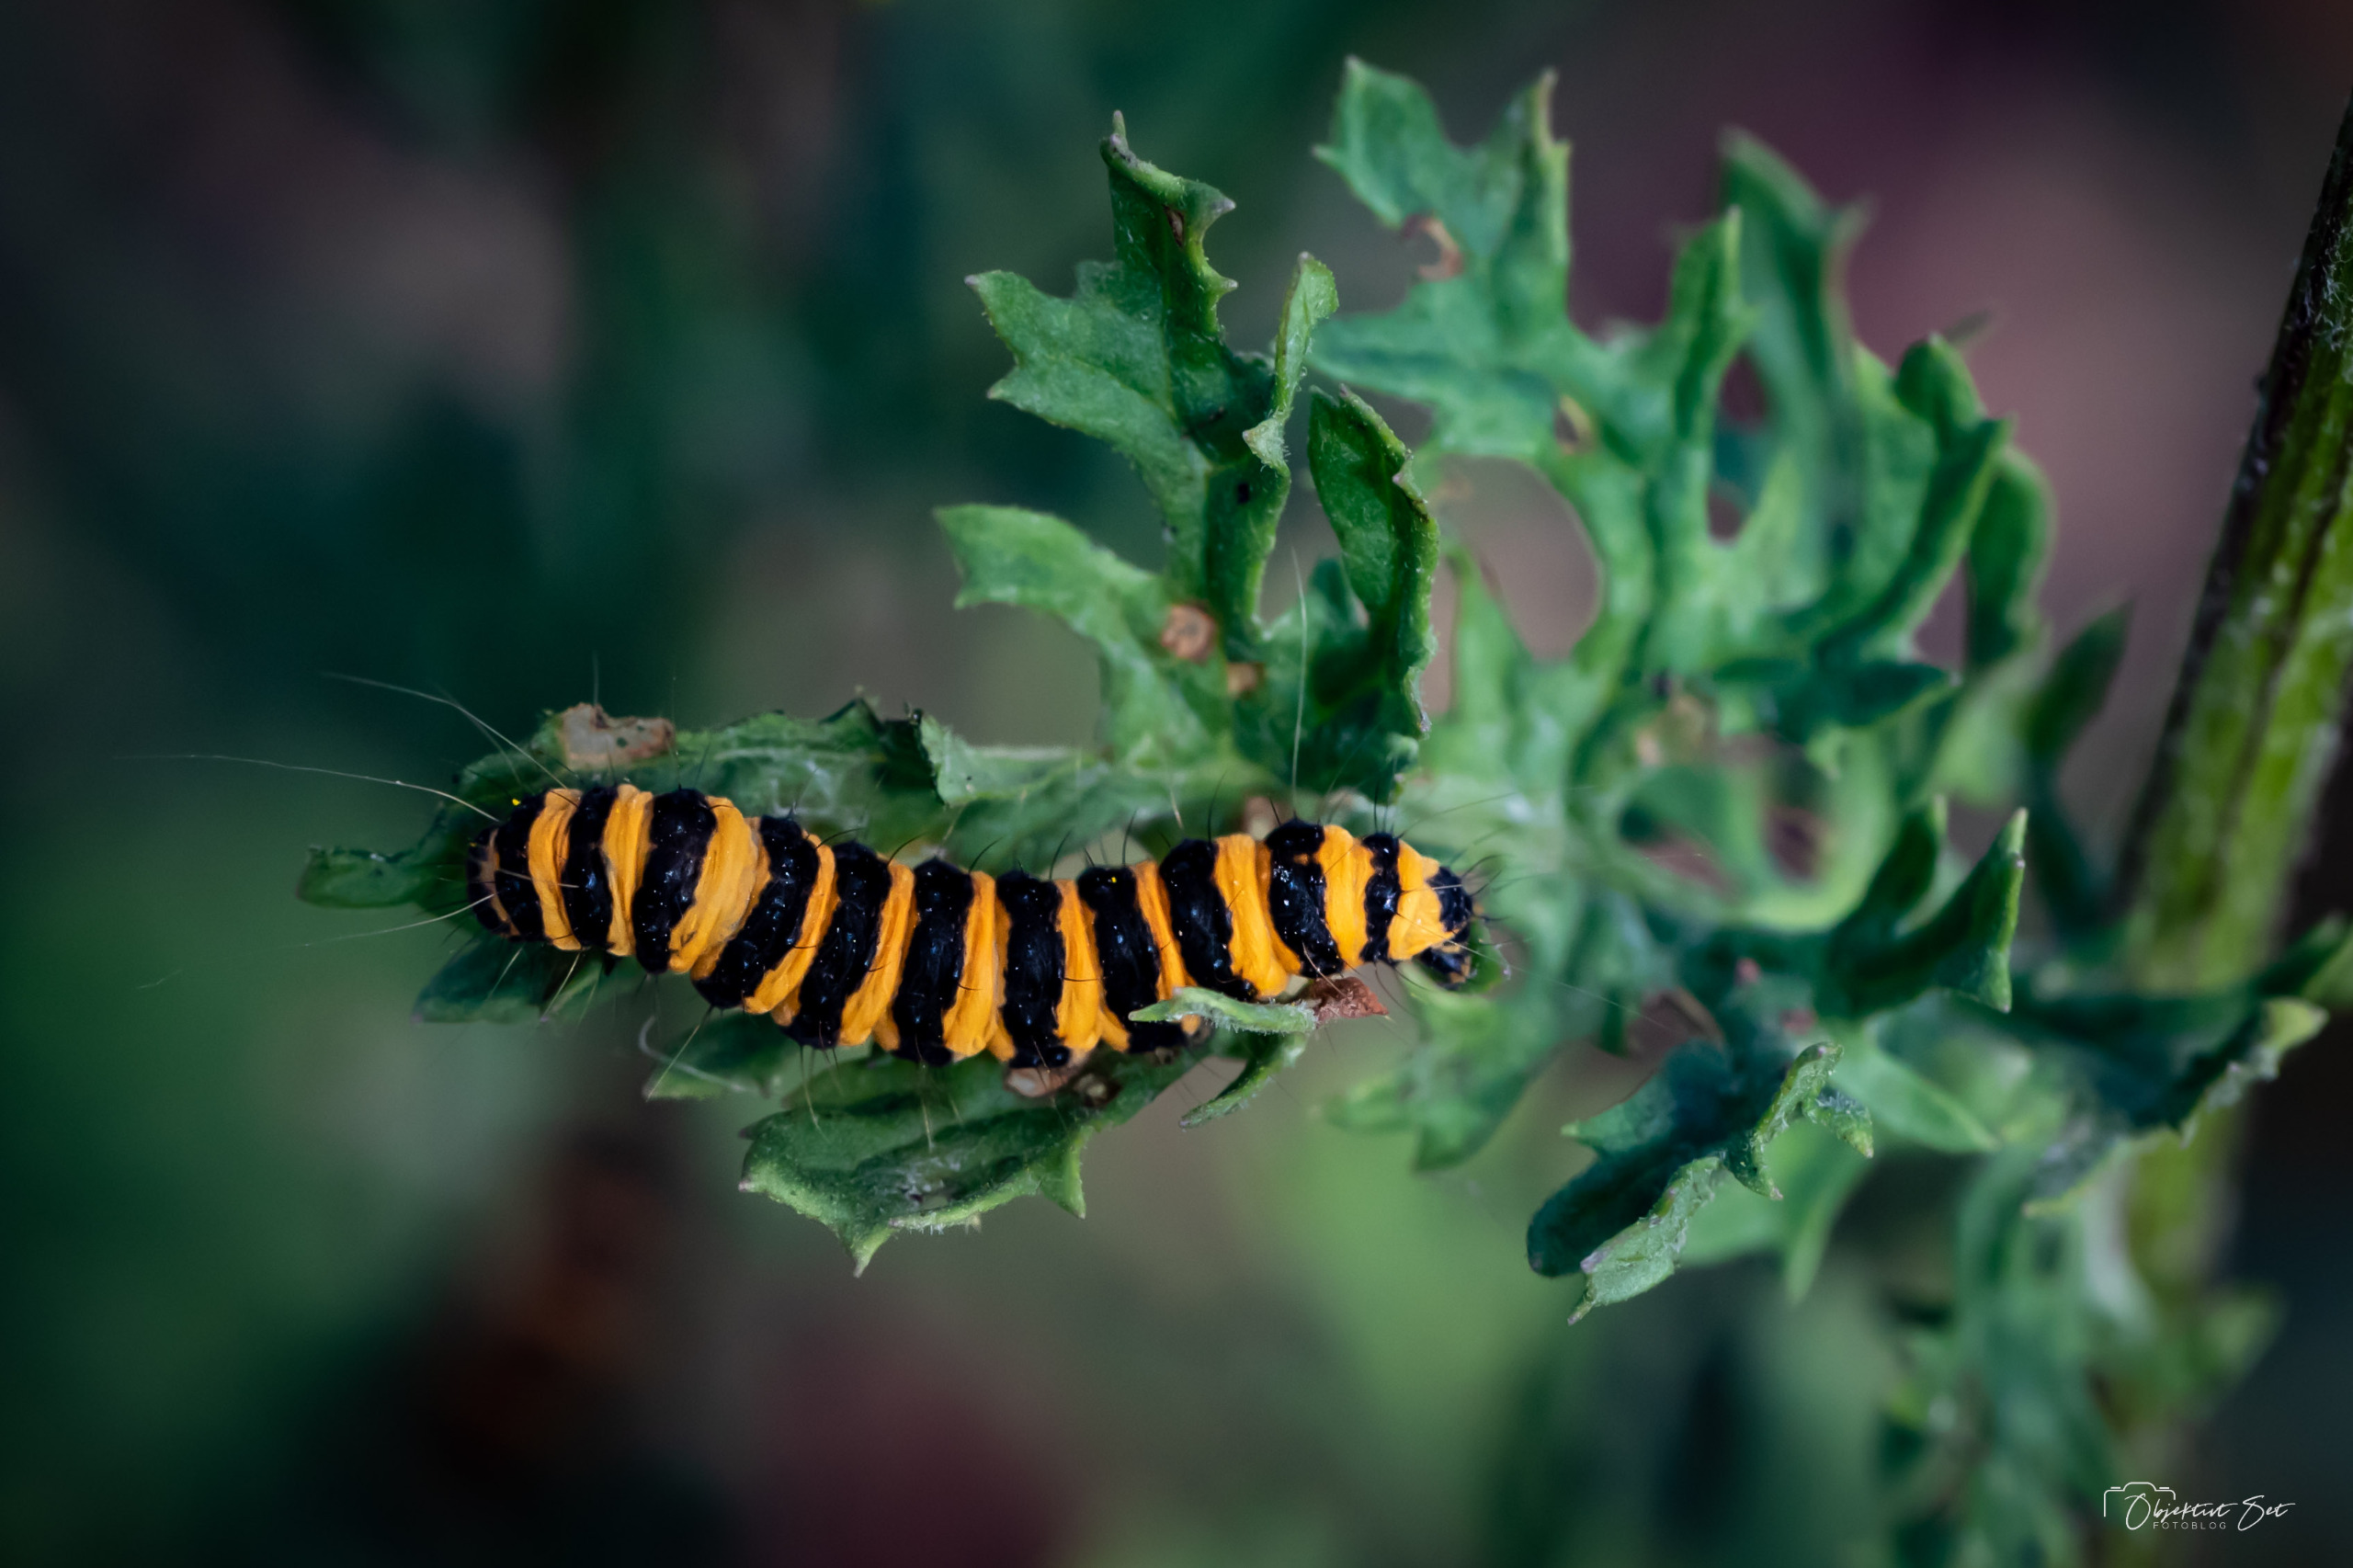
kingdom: Animalia
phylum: Arthropoda
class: Insecta
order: Lepidoptera
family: Erebidae
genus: Tyria
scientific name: Tyria jacobaeae
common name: Blodplet
